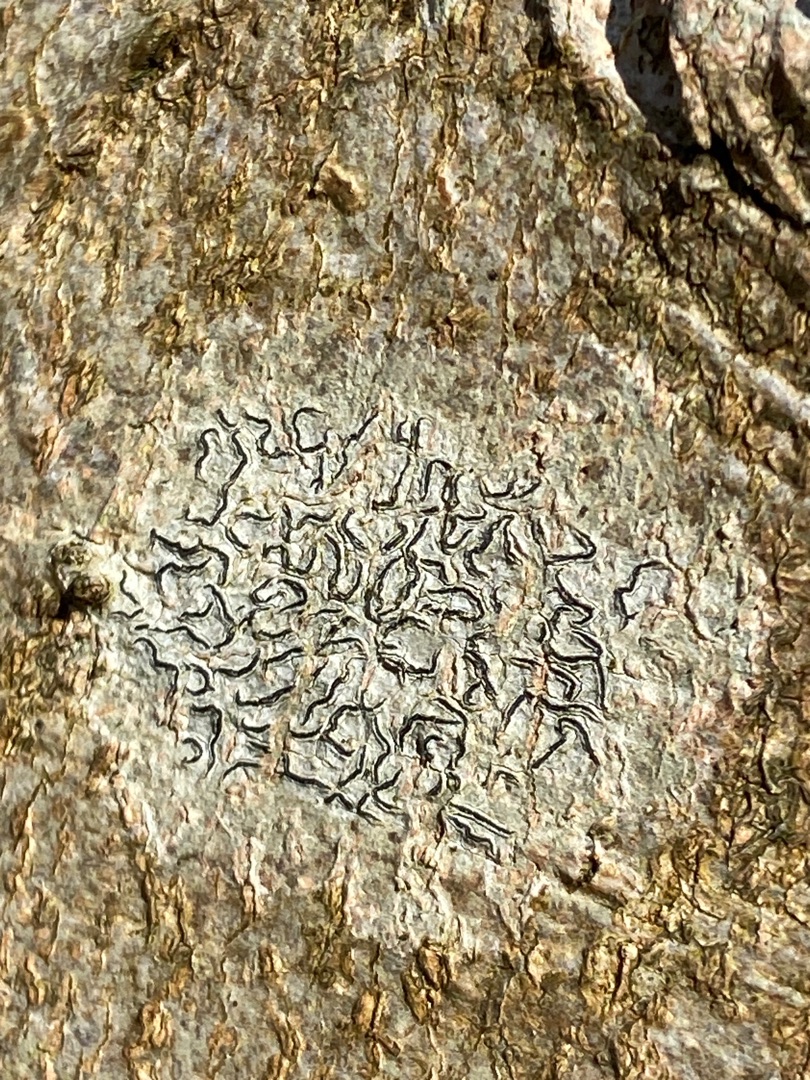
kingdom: Fungi
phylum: Ascomycota
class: Lecanoromycetes
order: Ostropales
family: Graphidaceae
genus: Graphis
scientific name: Graphis scripta
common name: Almindelig skriftlav
